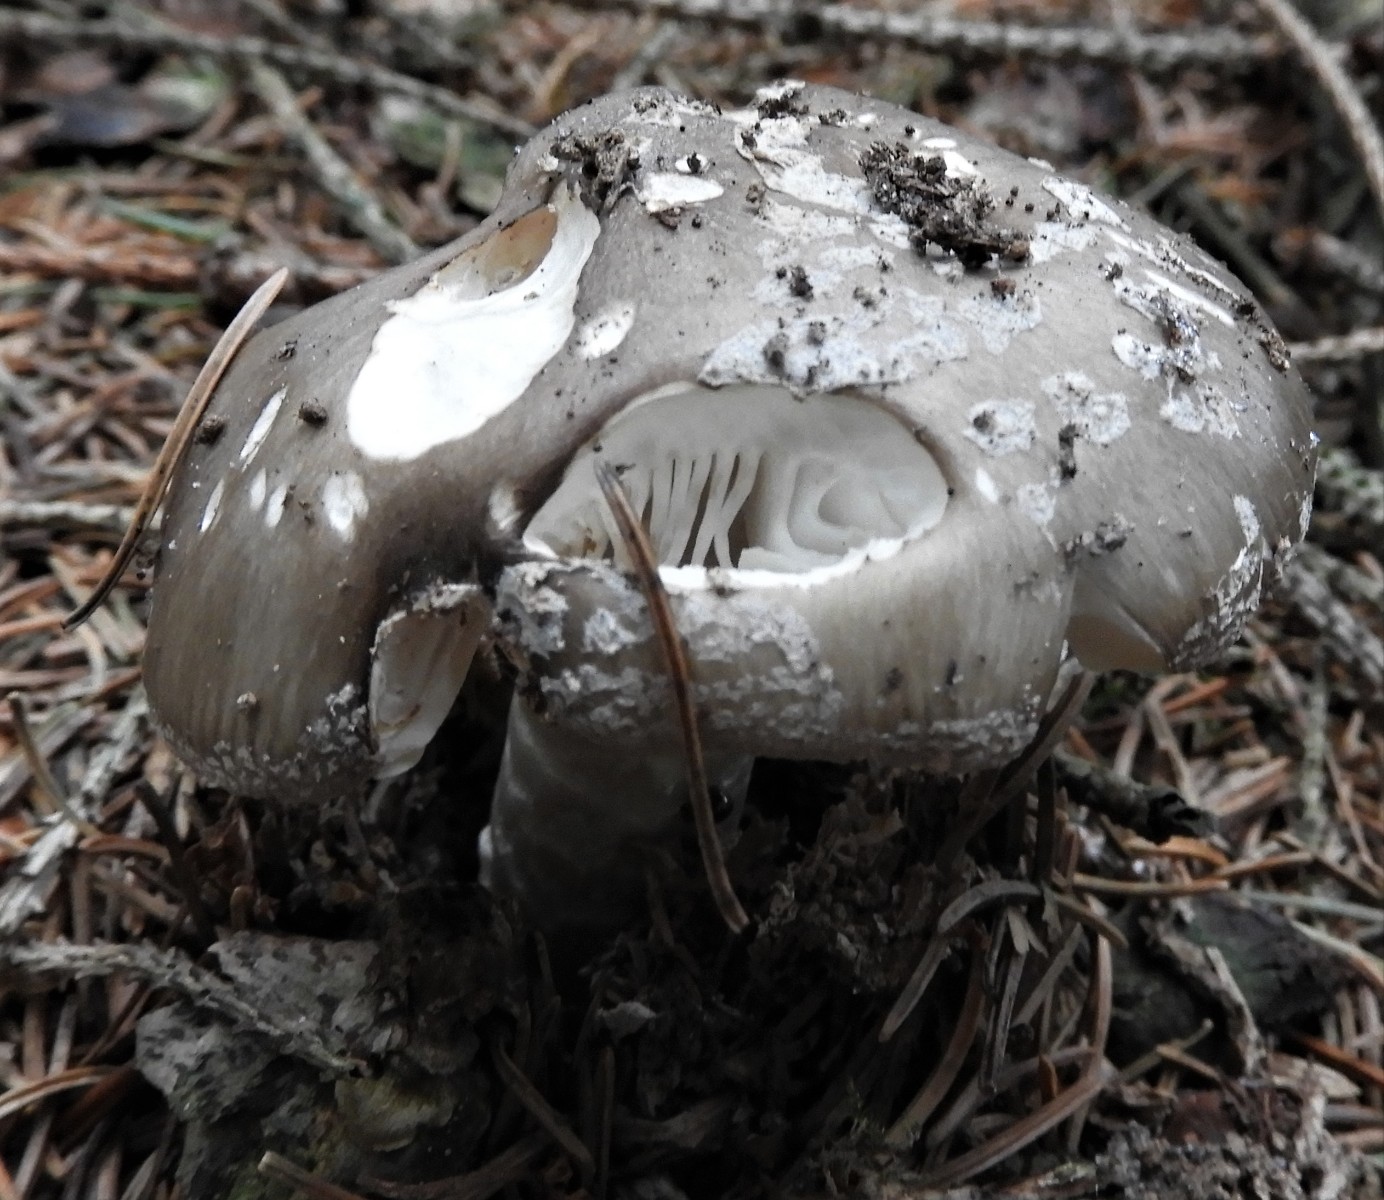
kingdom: Fungi
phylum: Basidiomycota
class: Agaricomycetes
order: Agaricales
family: Amanitaceae
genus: Amanita
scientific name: Amanita
